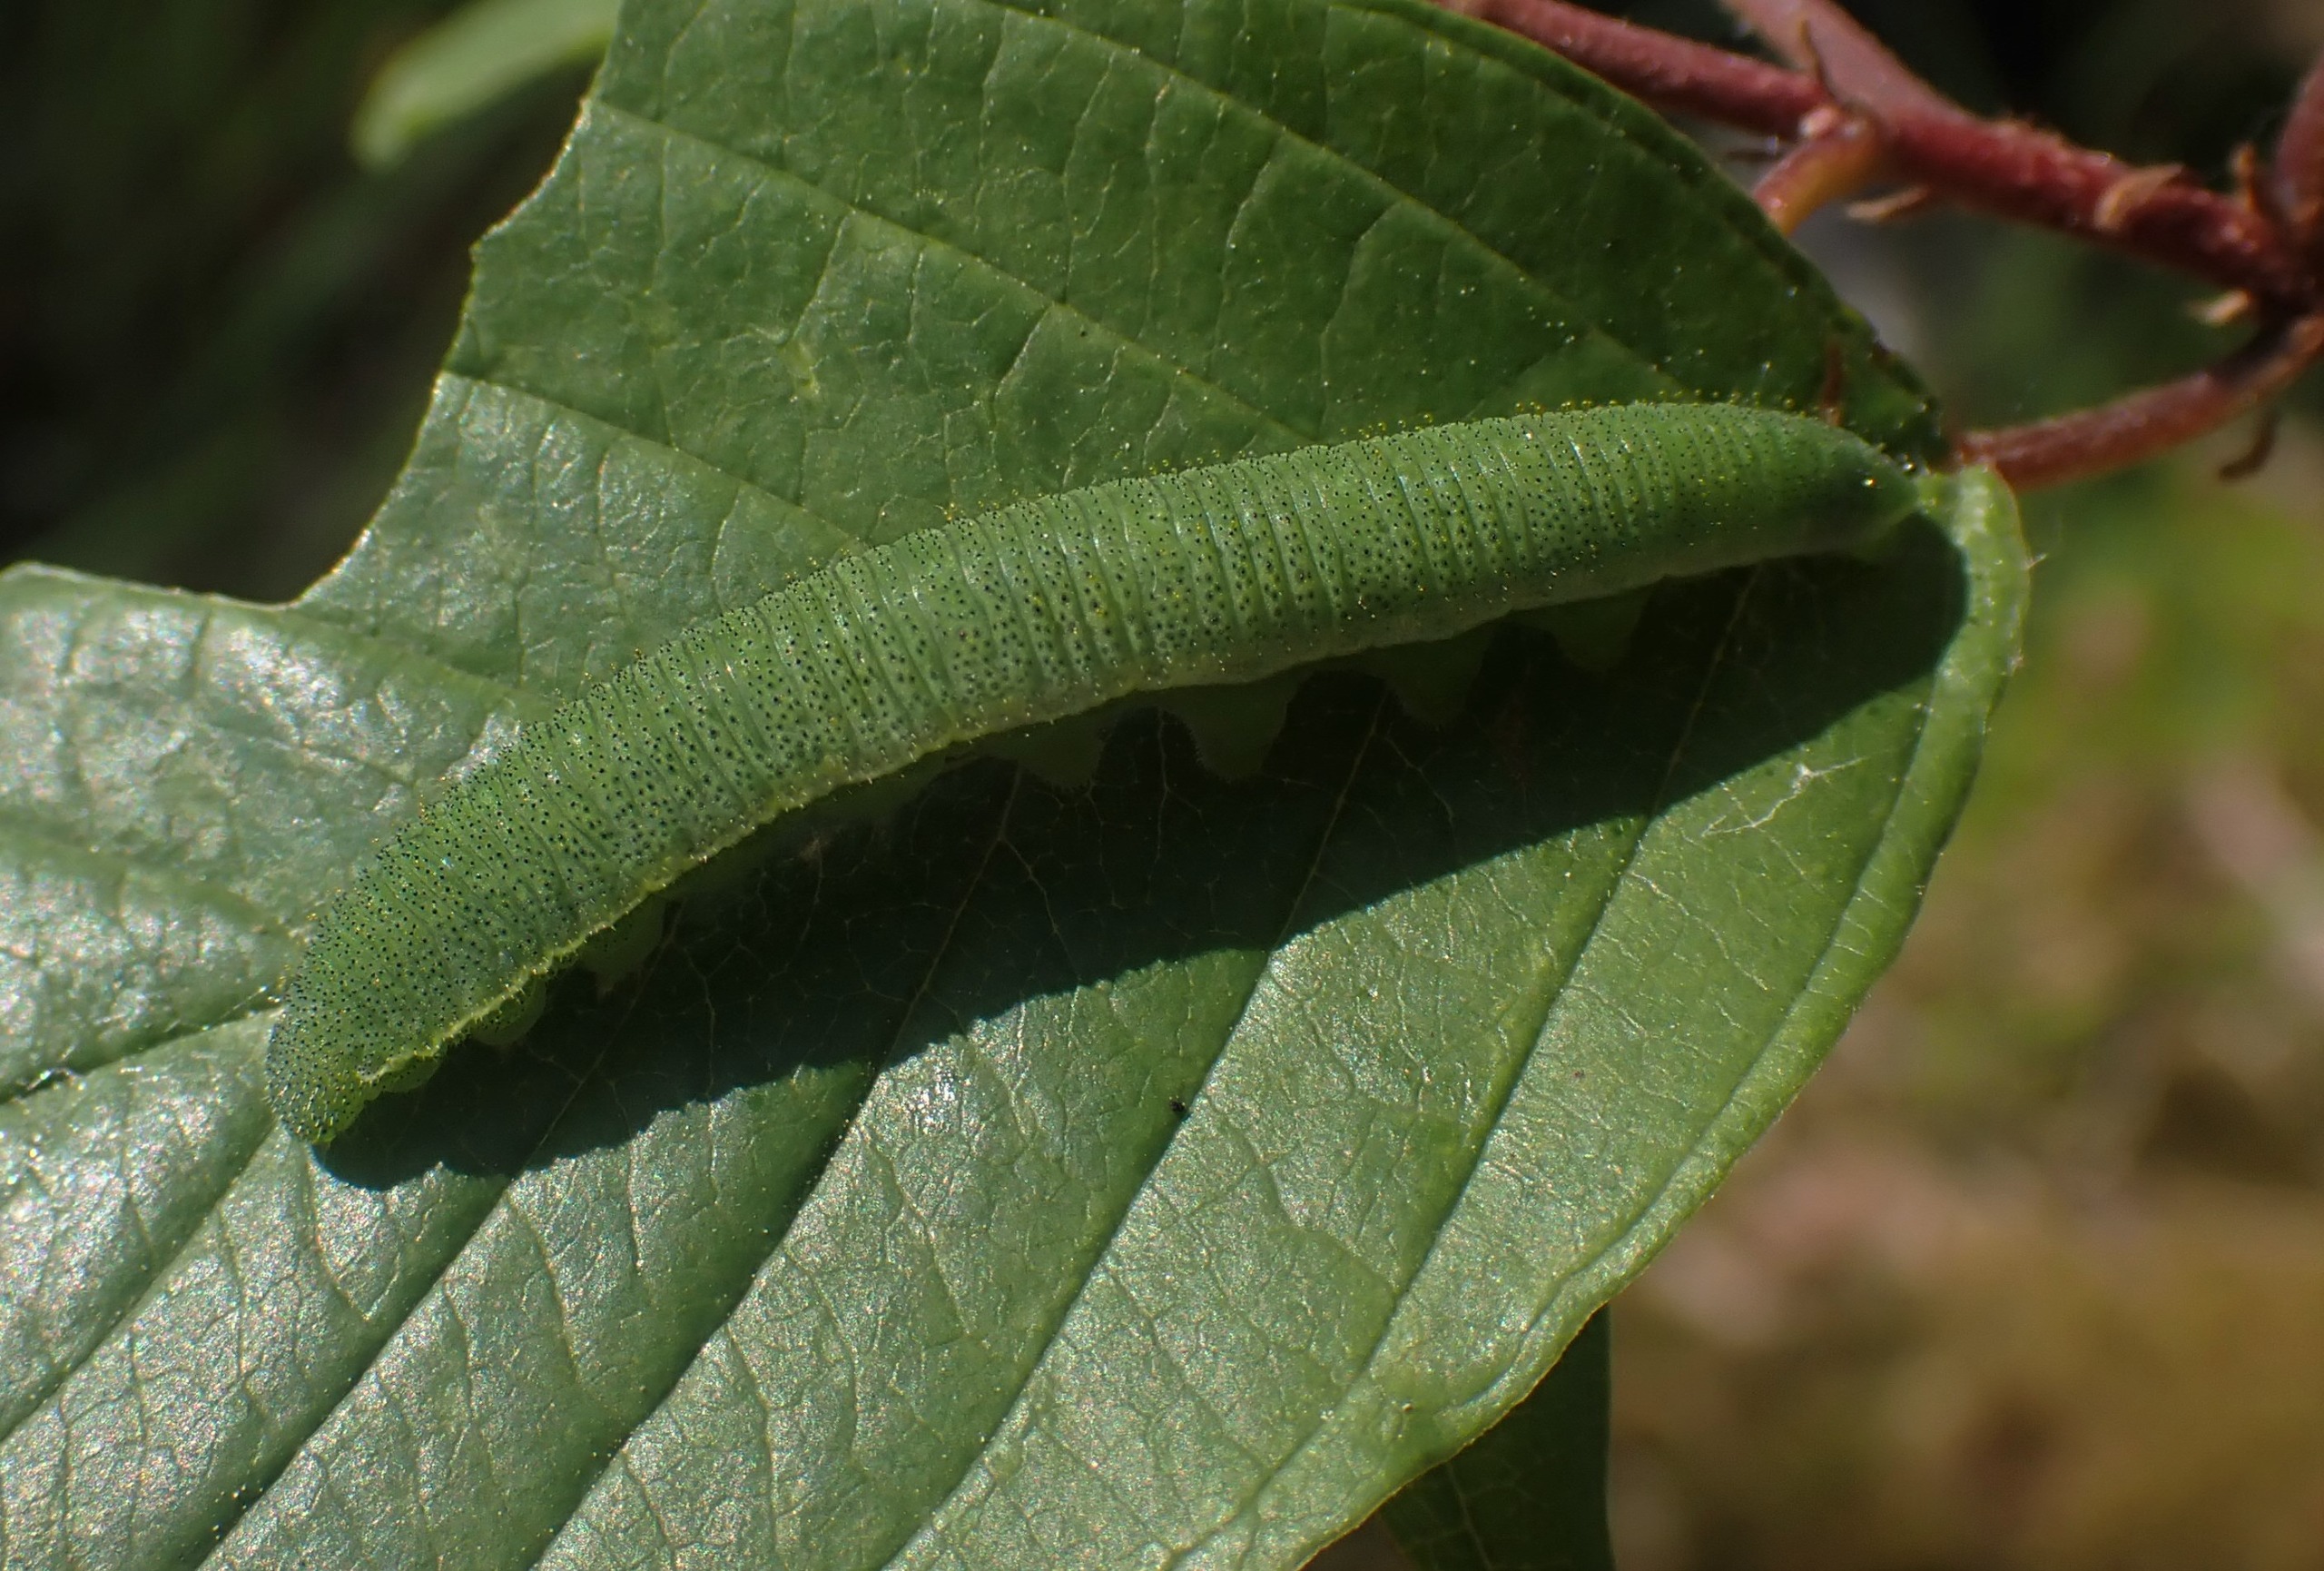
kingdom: Animalia
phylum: Arthropoda
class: Insecta
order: Lepidoptera
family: Pieridae
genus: Gonepteryx
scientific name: Gonepteryx rhamni
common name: Citronsommerfugl
